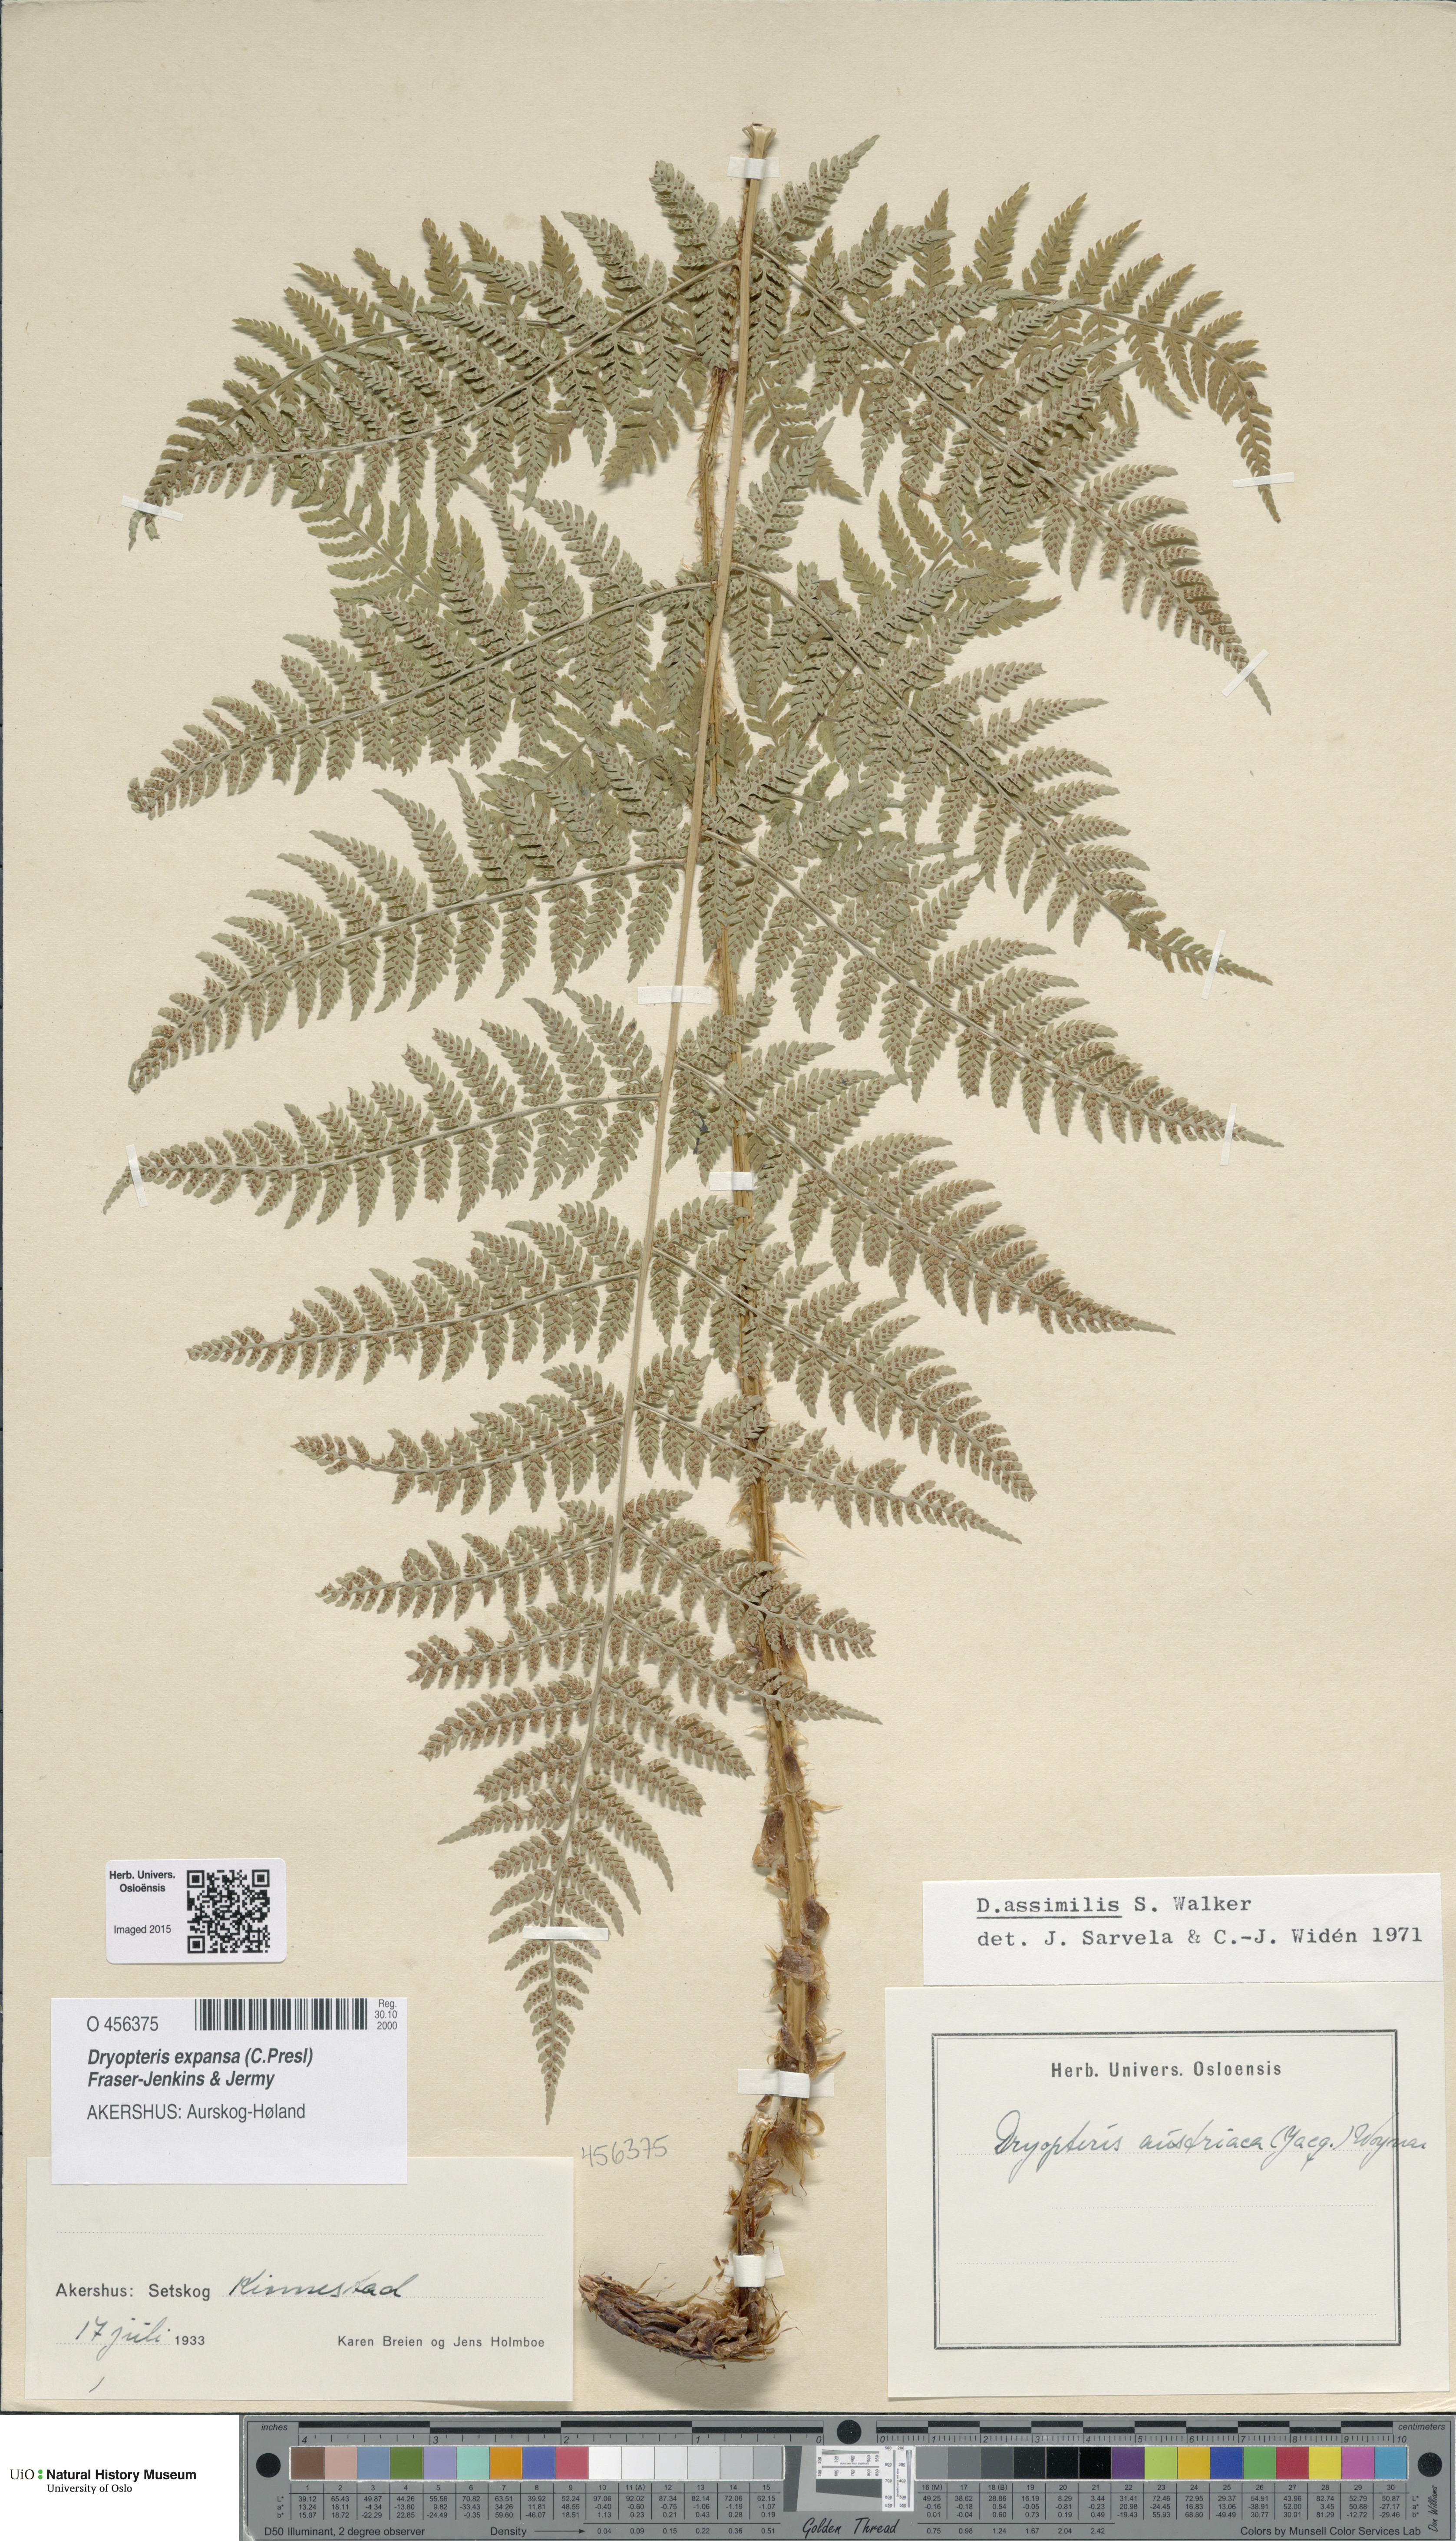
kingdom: Plantae
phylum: Tracheophyta
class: Polypodiopsida
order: Polypodiales
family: Dryopteridaceae
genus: Dryopteris
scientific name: Dryopteris expansa
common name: Northern buckler fern
